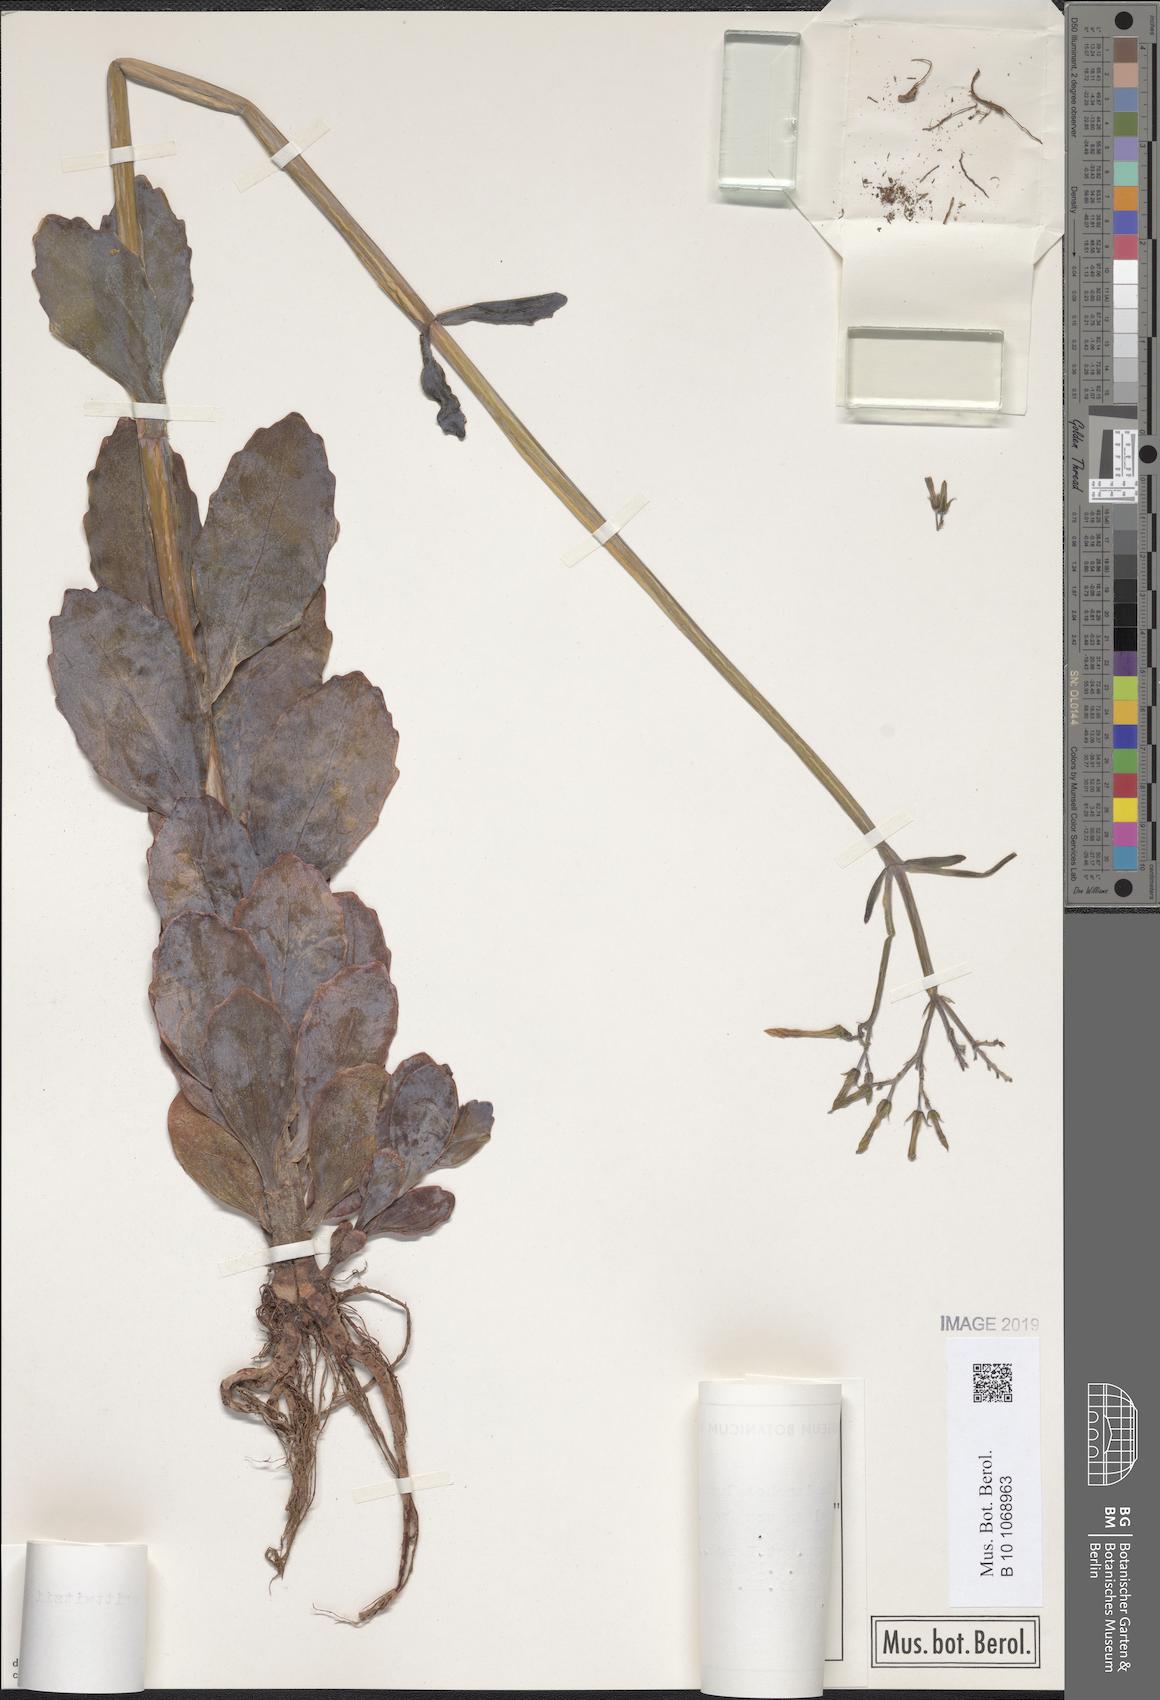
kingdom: Plantae
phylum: Tracheophyta
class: Magnoliopsida
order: Saxifragales
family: Crassulaceae
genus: Kalanchoe
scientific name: Kalanchoe prittwitzii
